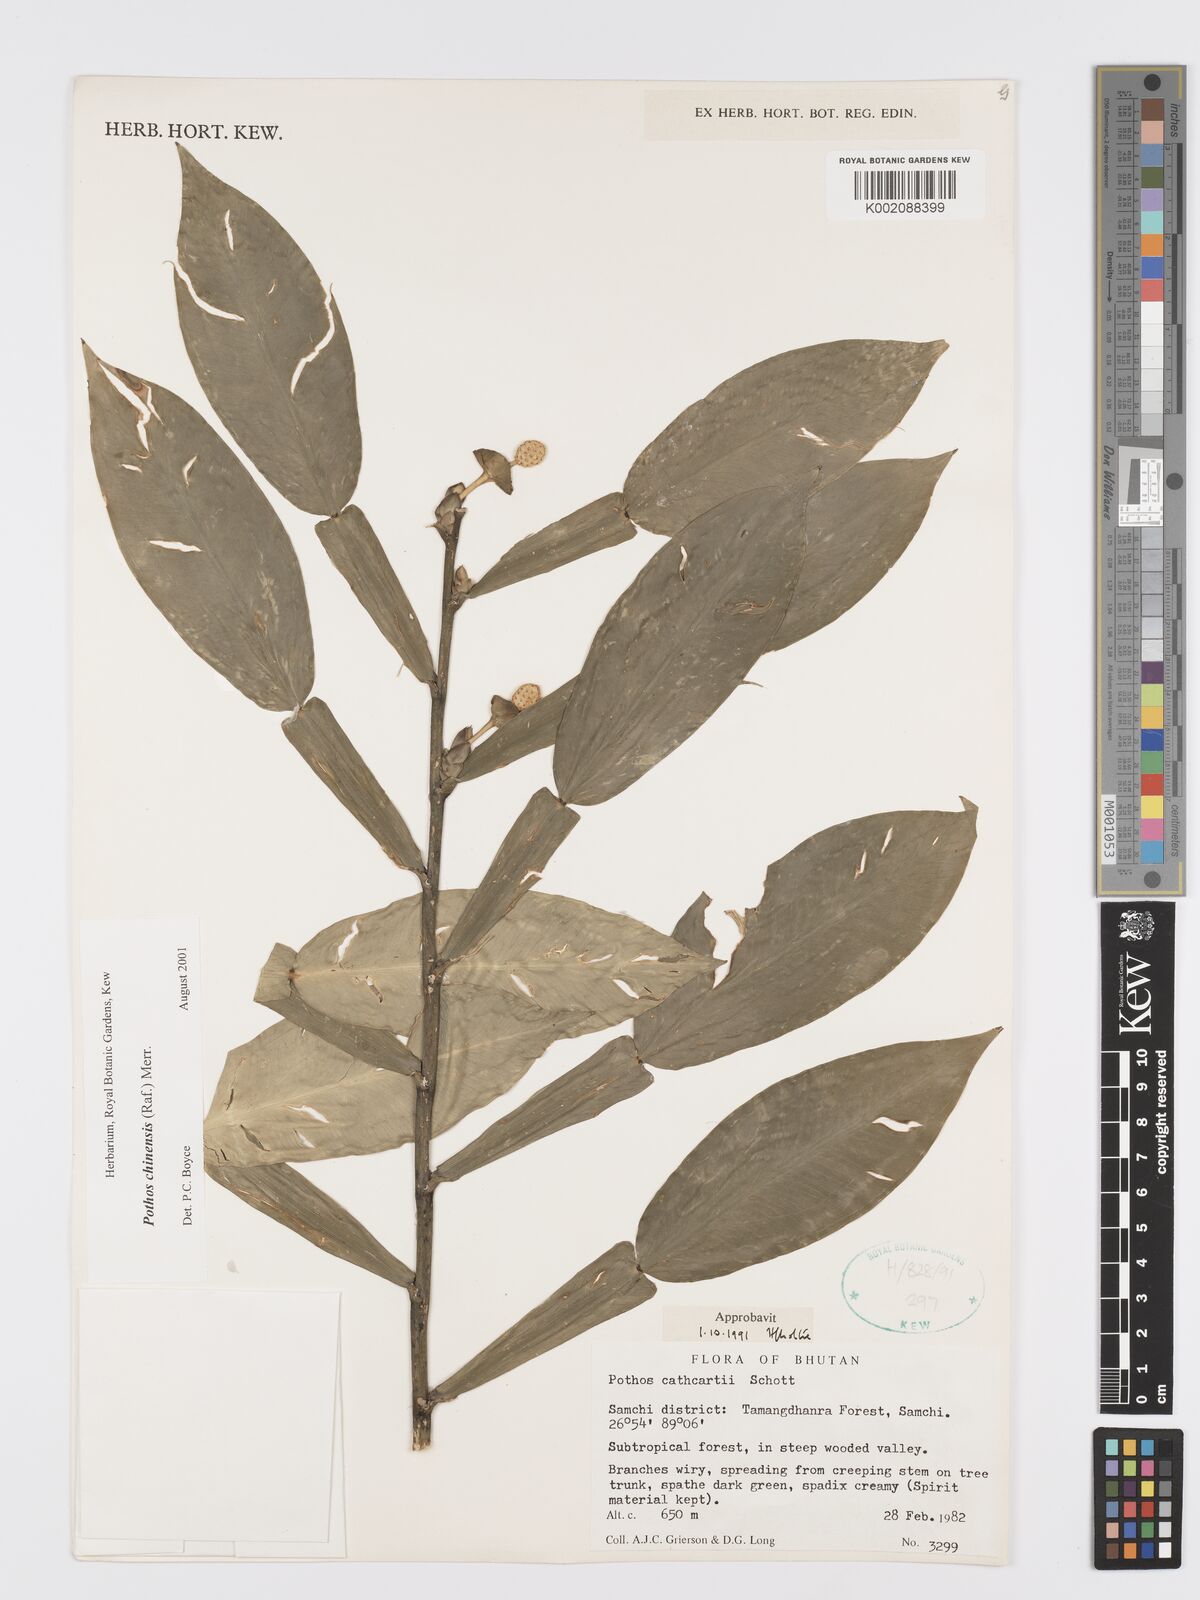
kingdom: Plantae
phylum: Tracheophyta
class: Liliopsida
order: Alismatales
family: Araceae
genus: Pothos
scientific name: Pothos chinensis
